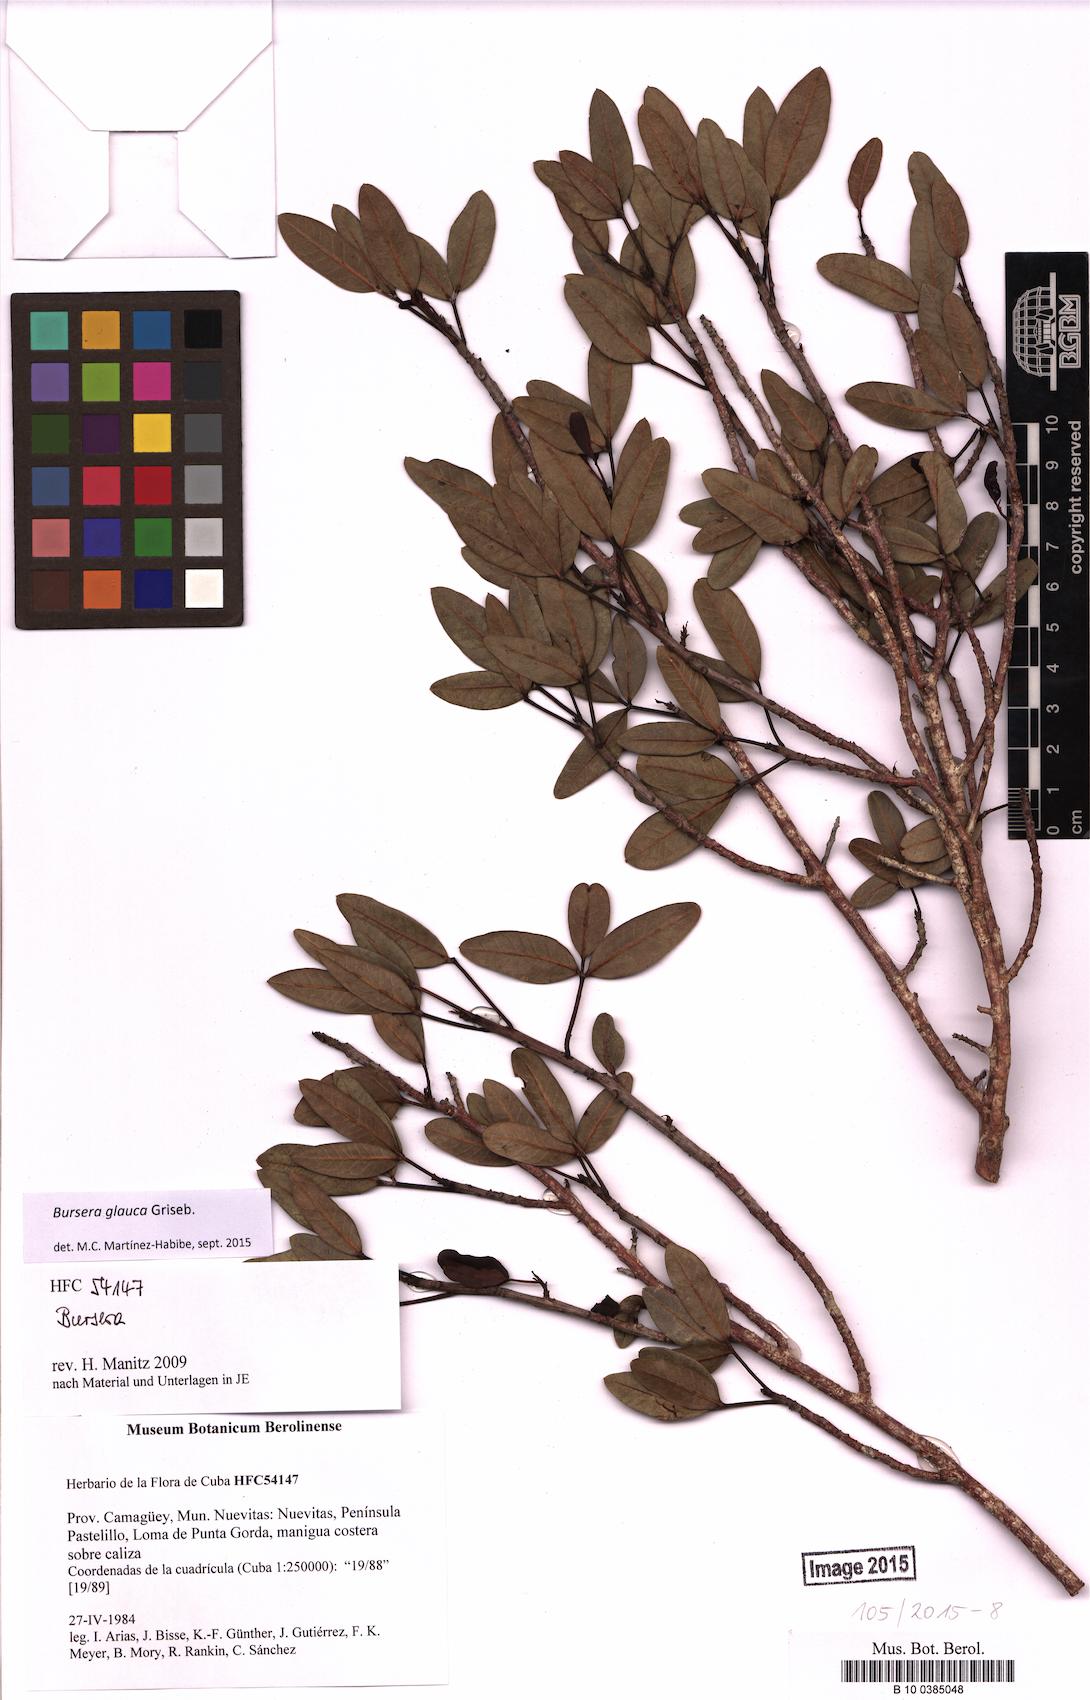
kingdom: Plantae
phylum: Tracheophyta
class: Magnoliopsida
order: Sapindales
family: Burseraceae
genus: Bursera
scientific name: Bursera glauca
